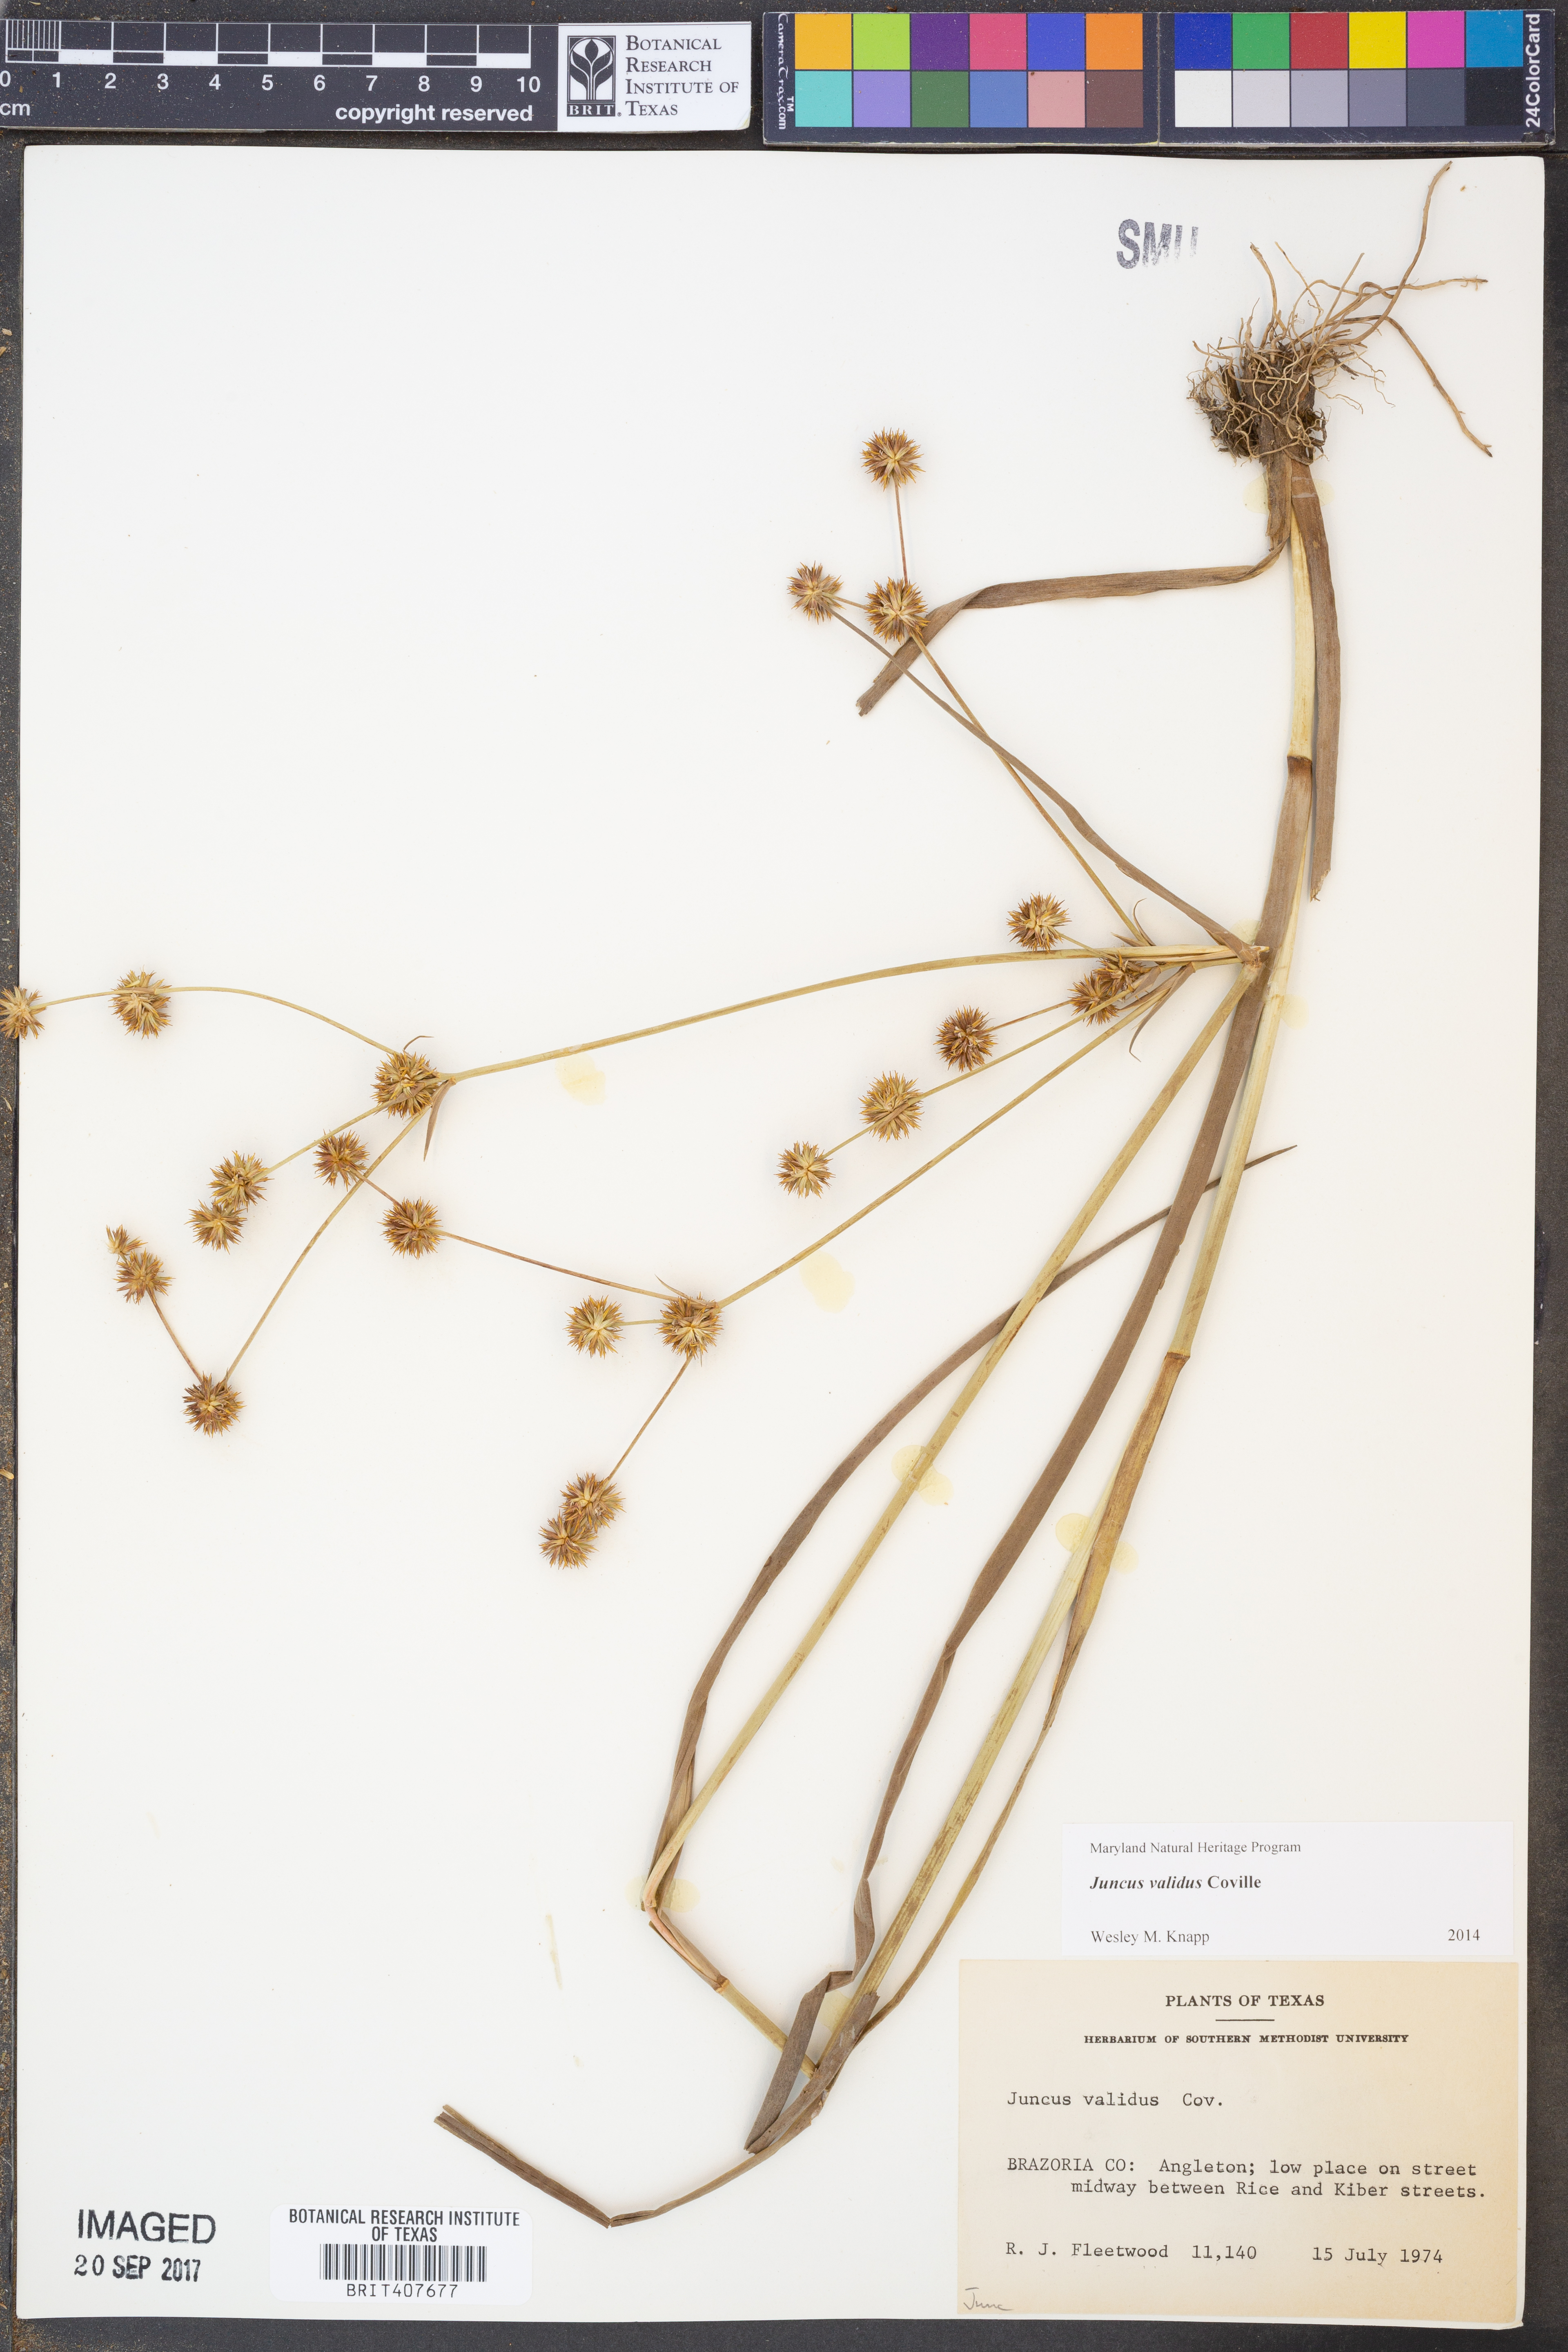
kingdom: Plantae
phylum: Tracheophyta
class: Liliopsida
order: Poales
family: Juncaceae
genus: Juncus
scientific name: Juncus validus
